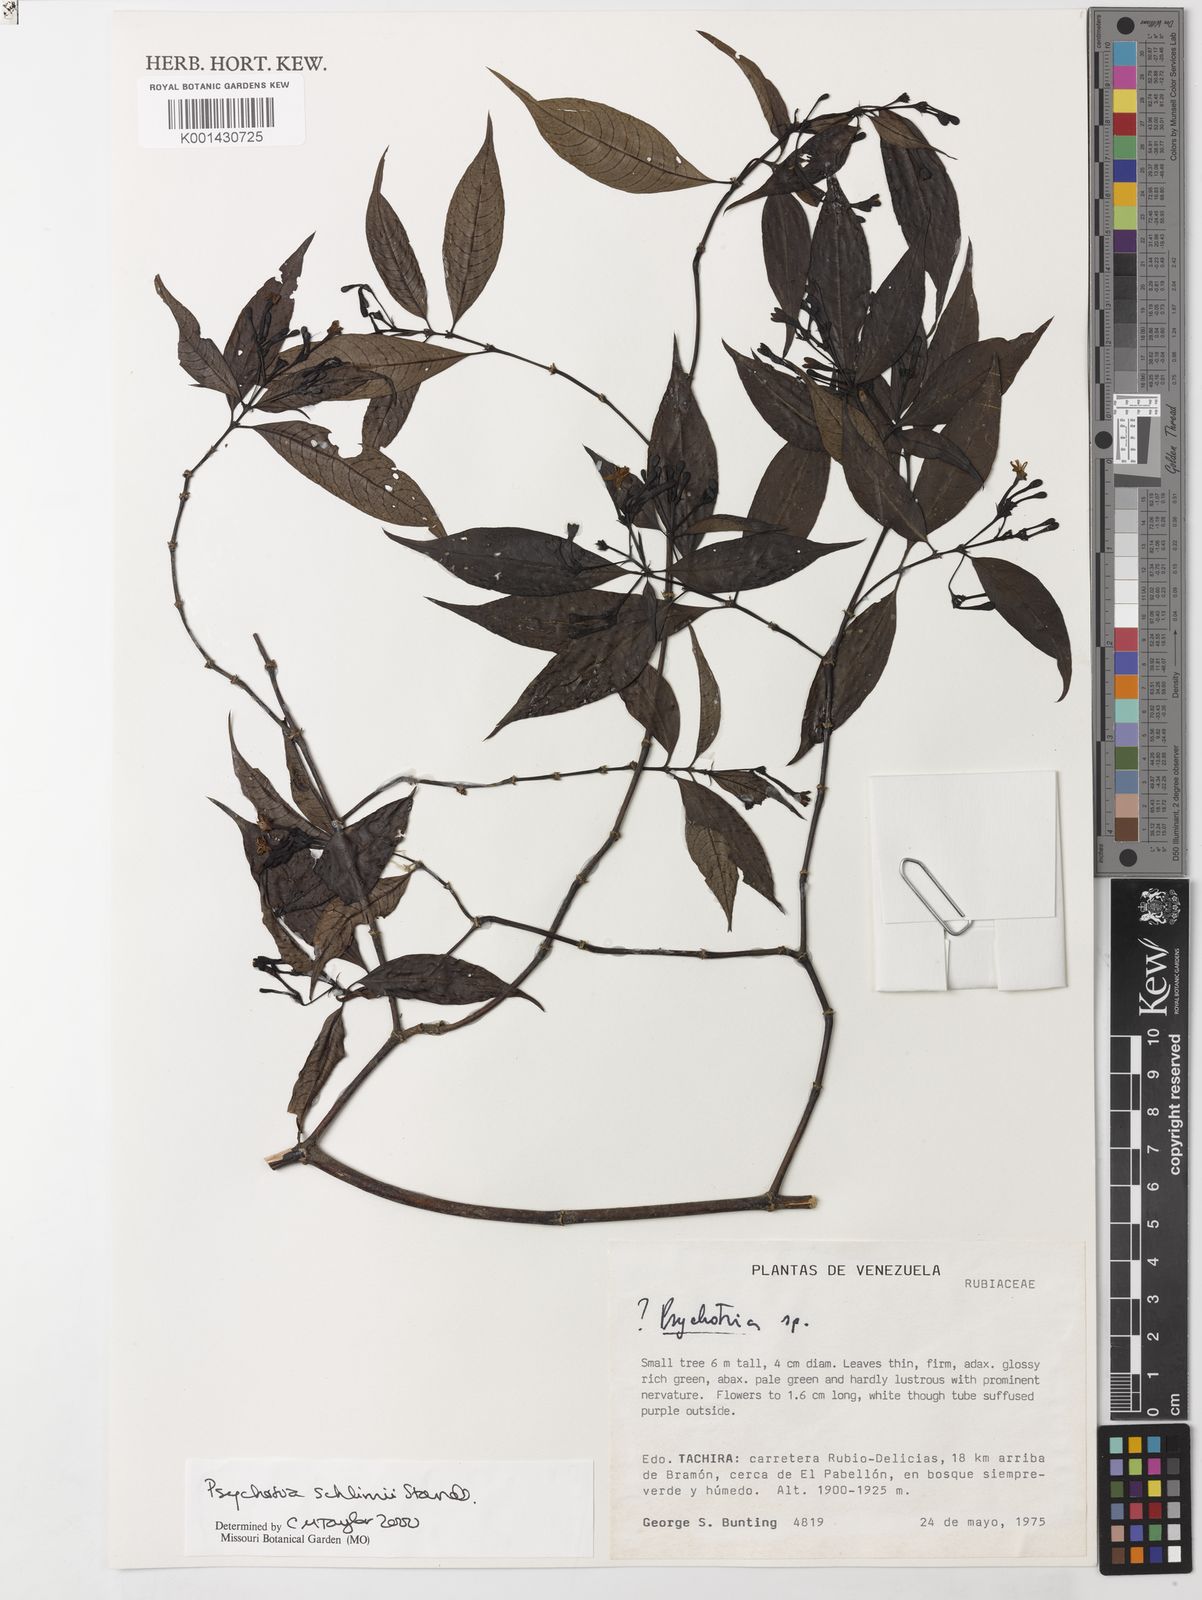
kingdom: Plantae
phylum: Tracheophyta
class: Magnoliopsida
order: Gentianales
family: Rubiaceae
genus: Palicourea
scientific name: Palicourea schlimii
